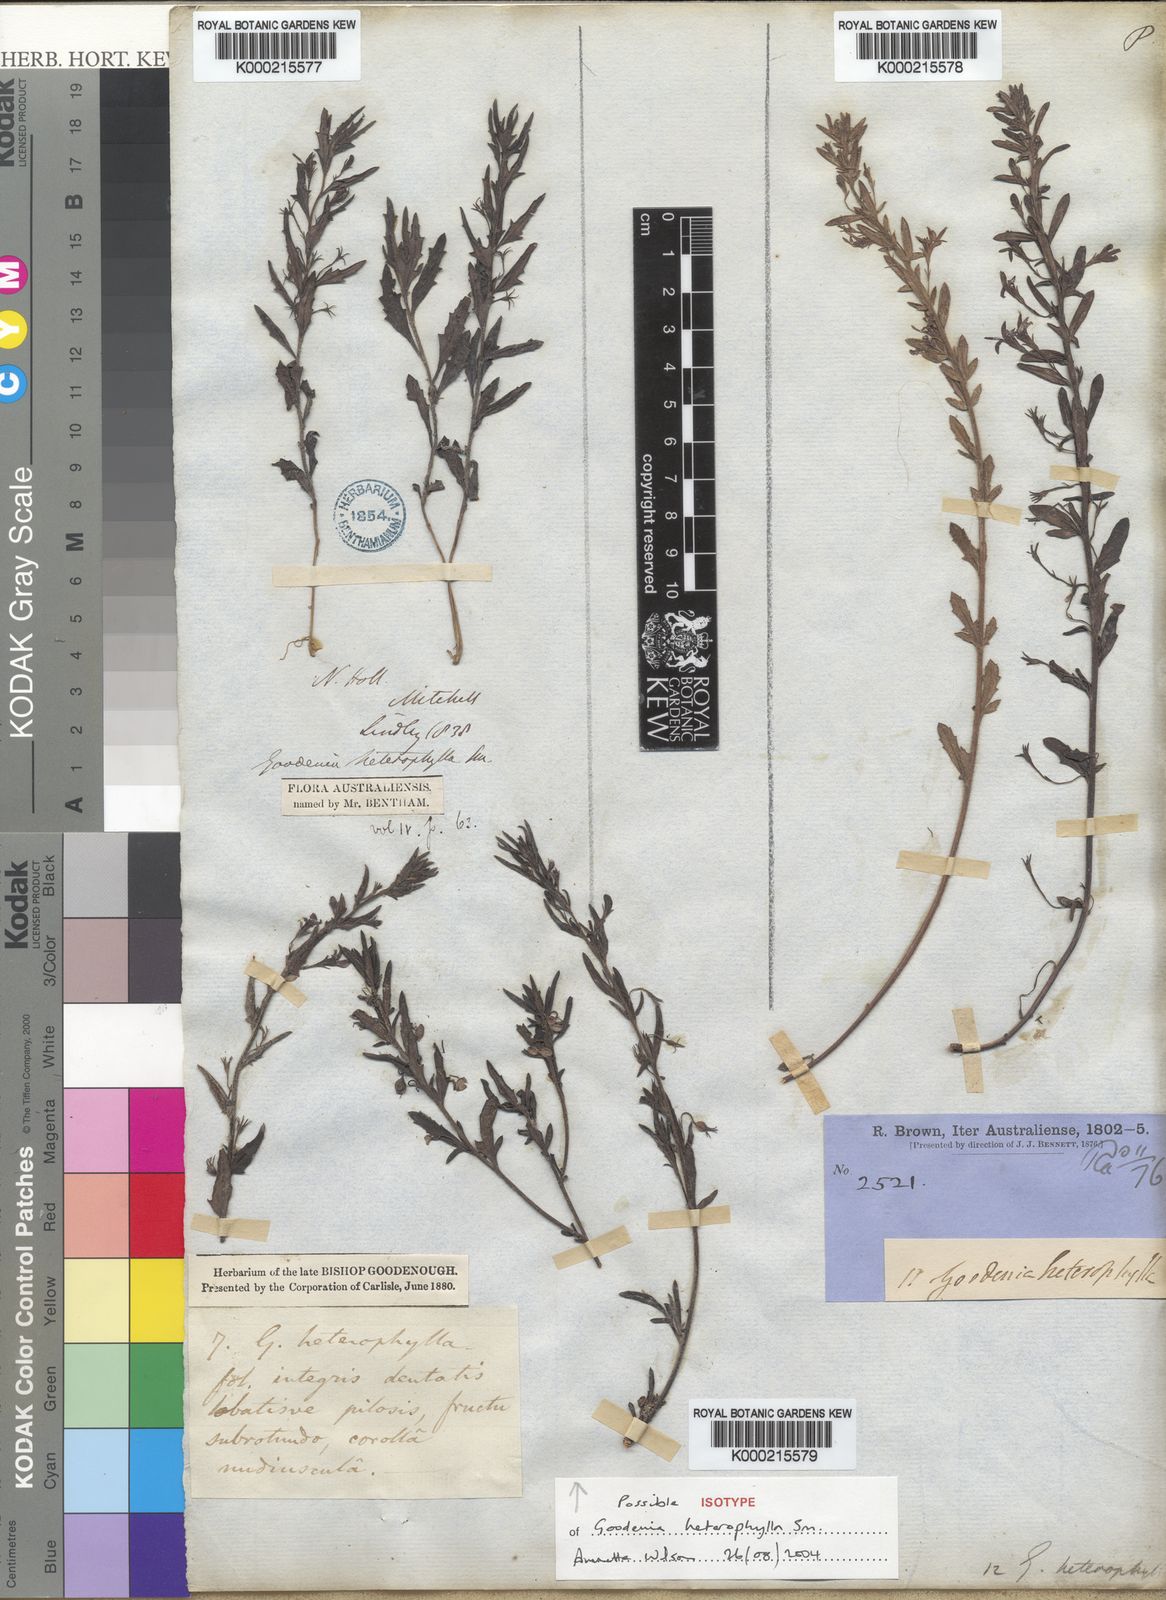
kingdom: Plantae
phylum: Tracheophyta
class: Magnoliopsida
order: Asterales
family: Goodeniaceae
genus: Goodenia
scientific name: Goodenia heterophylla
